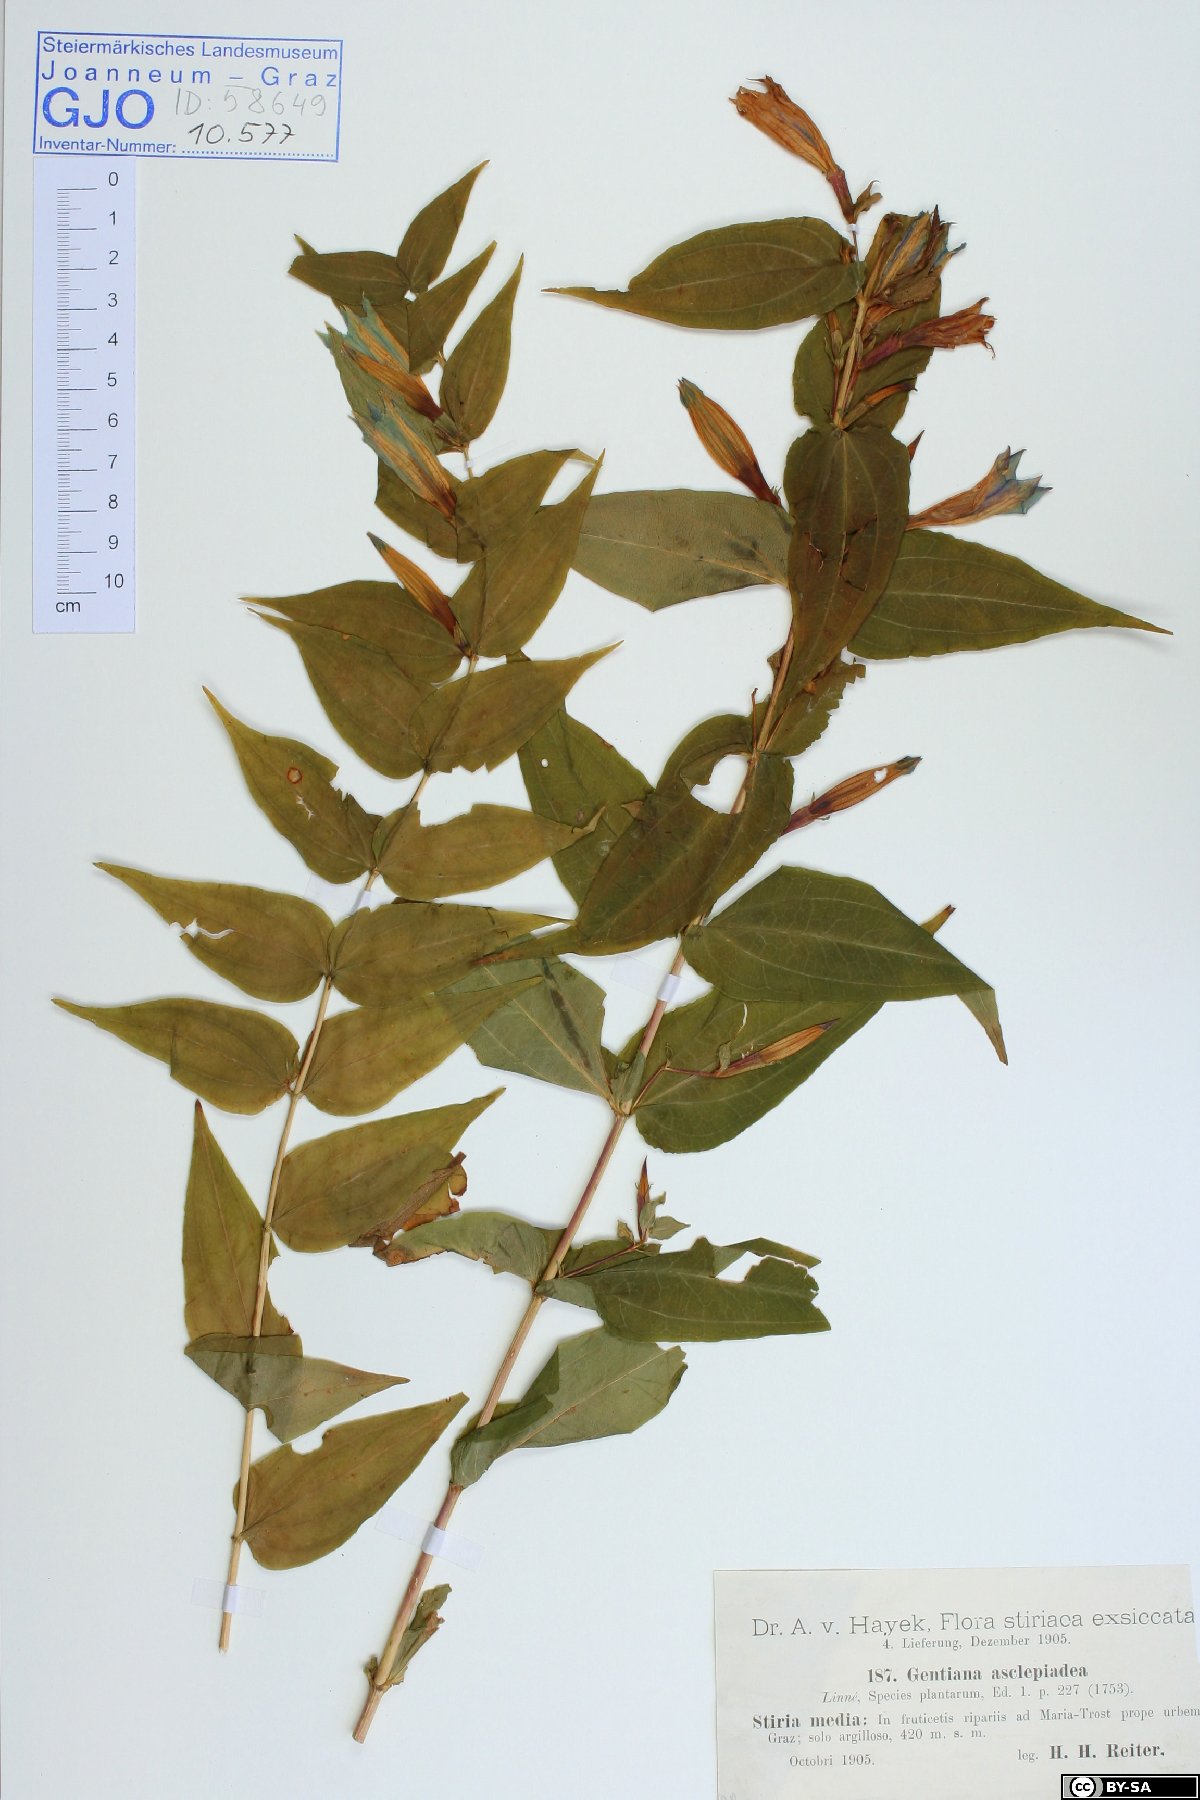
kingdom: Plantae
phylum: Tracheophyta
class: Magnoliopsida
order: Gentianales
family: Gentianaceae
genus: Gentiana
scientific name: Gentiana asclepiadea
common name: Willow gentian
